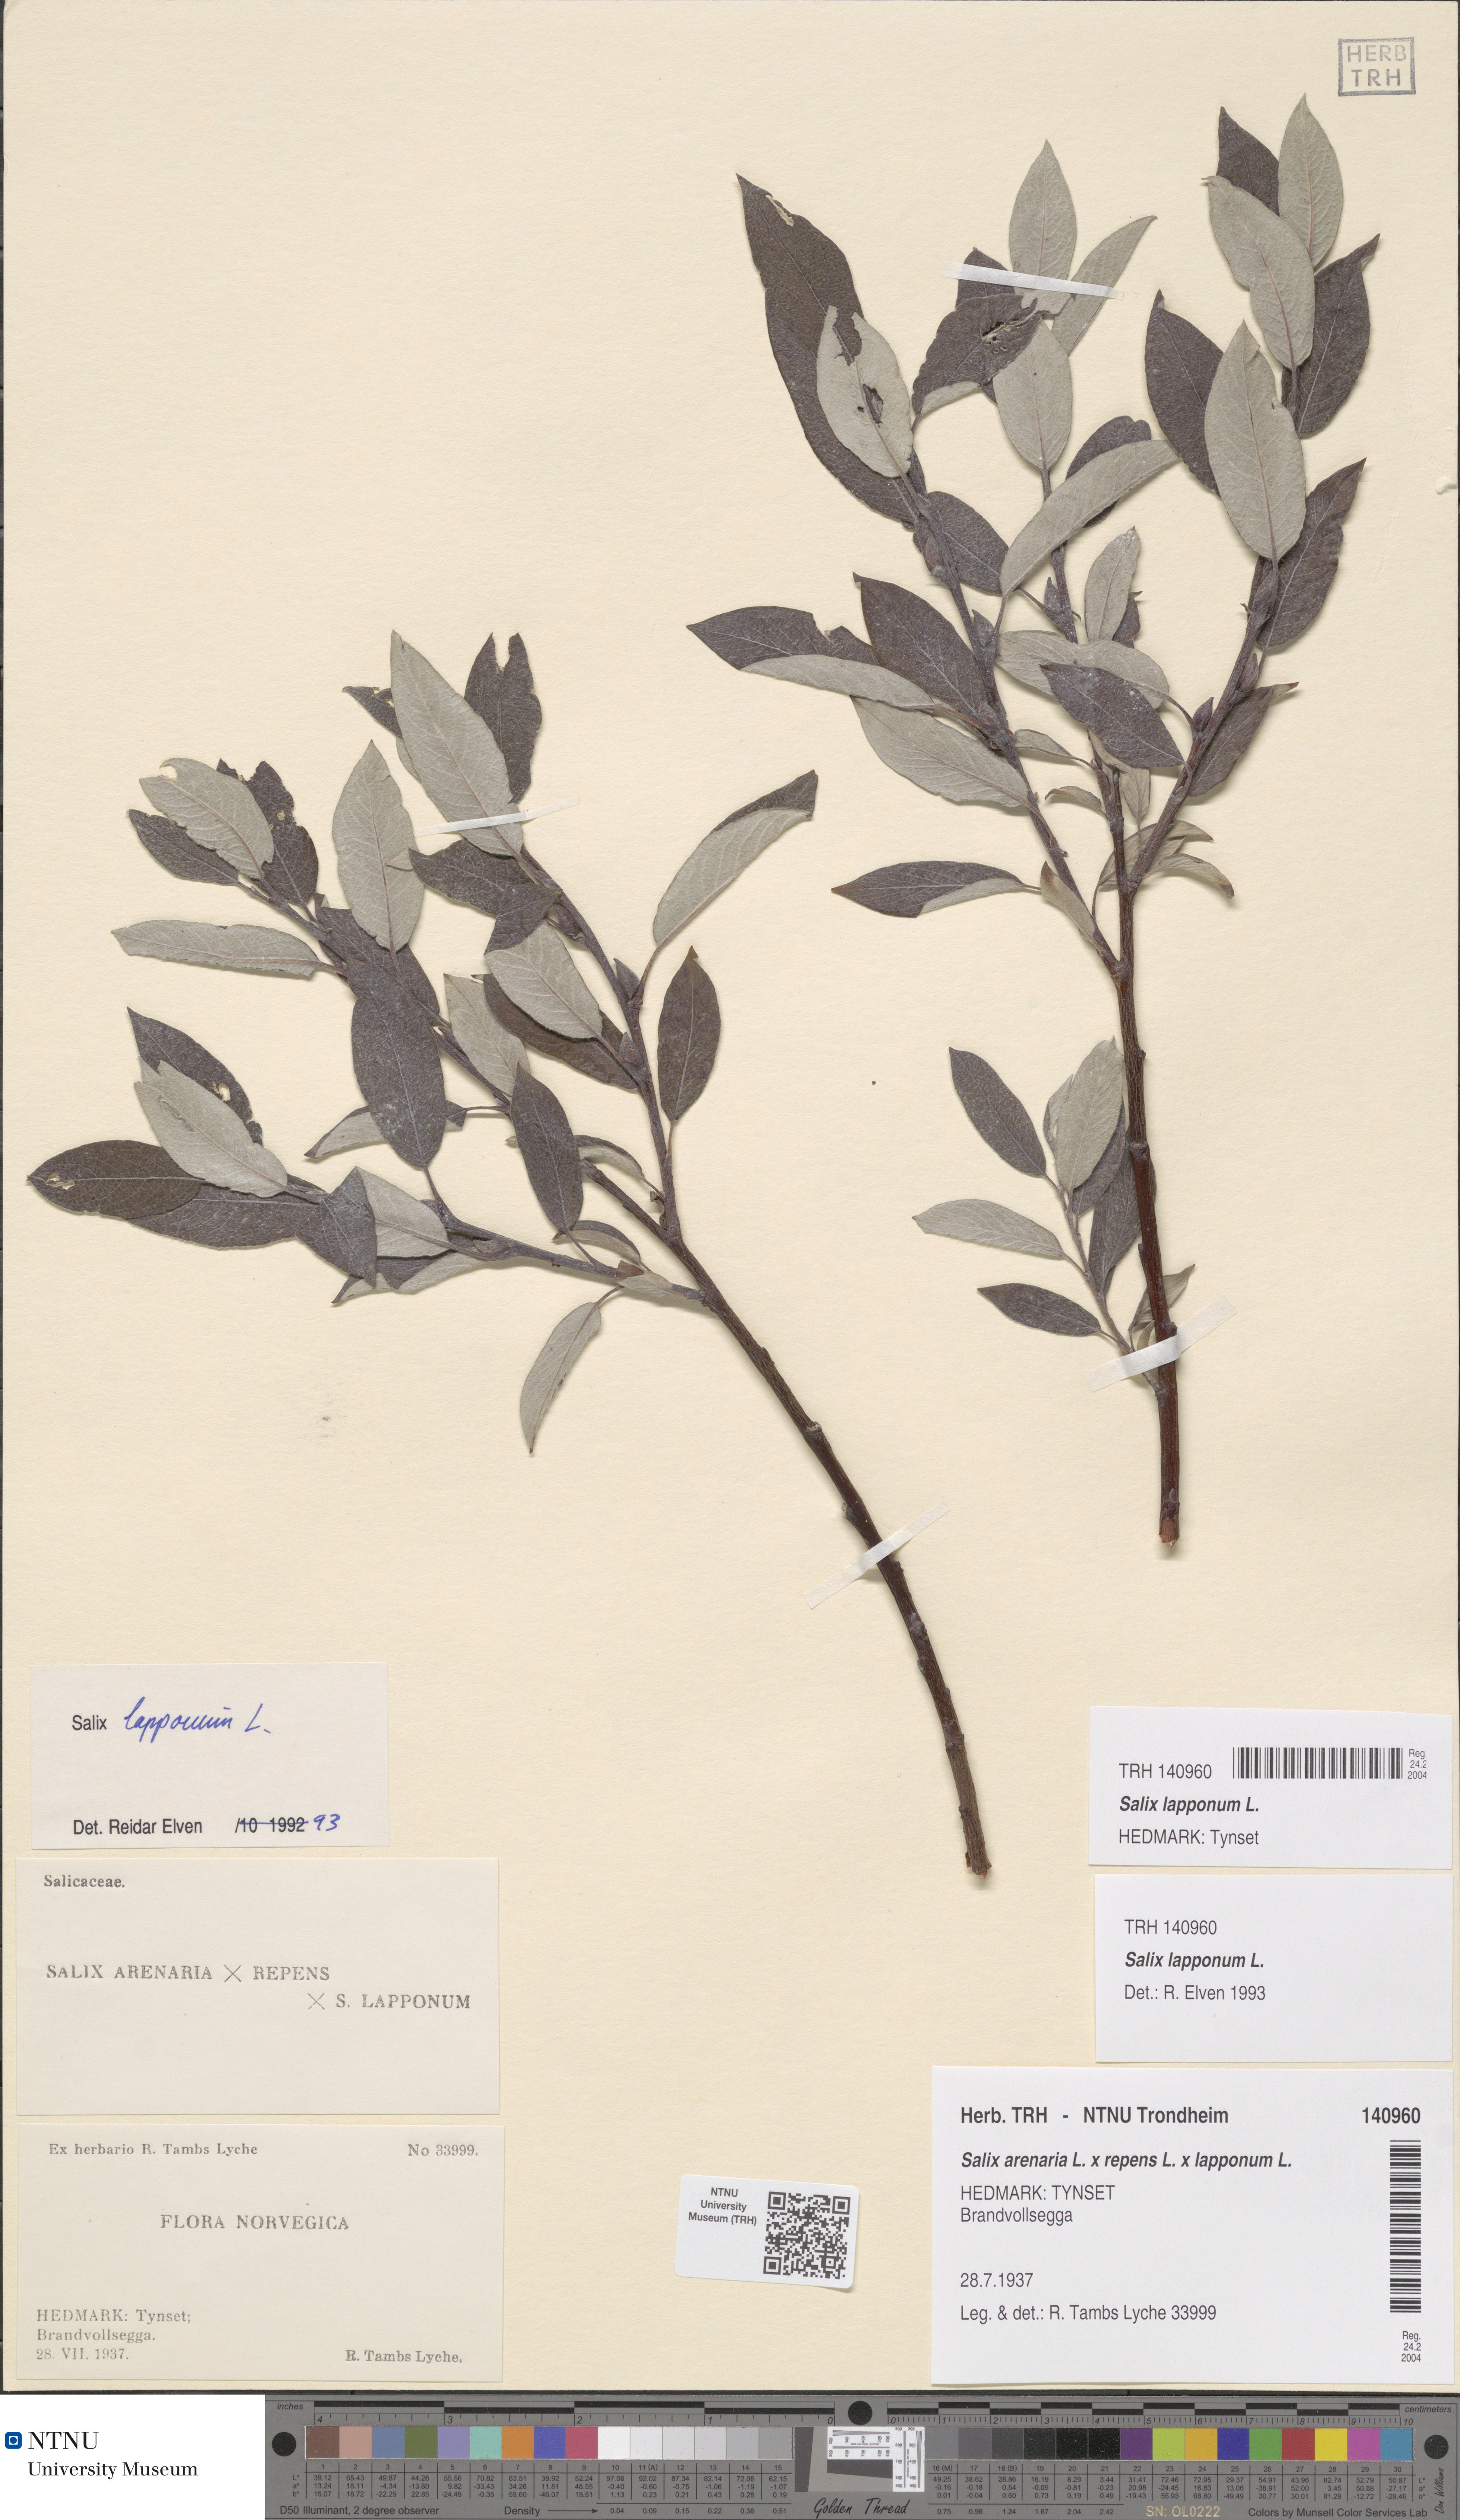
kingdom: Plantae
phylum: Tracheophyta
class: Magnoliopsida
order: Malpighiales
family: Salicaceae
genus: Salix
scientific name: Salix lapponum
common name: Downy willow
